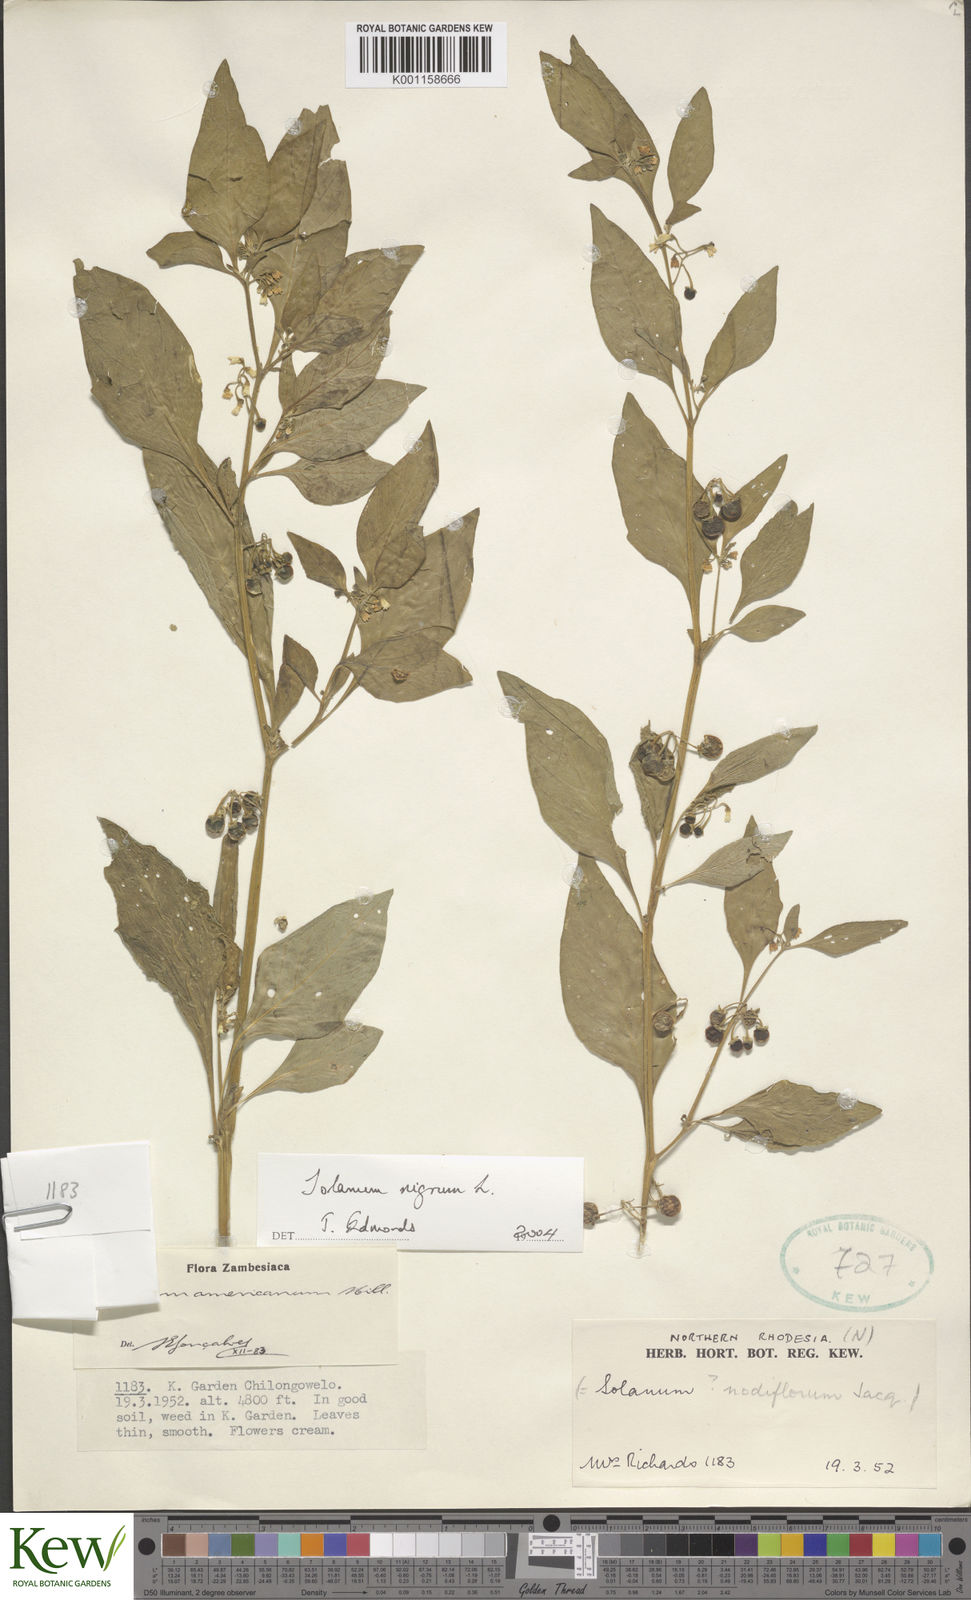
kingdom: Plantae
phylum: Tracheophyta
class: Magnoliopsida
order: Solanales
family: Solanaceae
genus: Solanum
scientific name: Solanum nigrum
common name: Black nightshade
